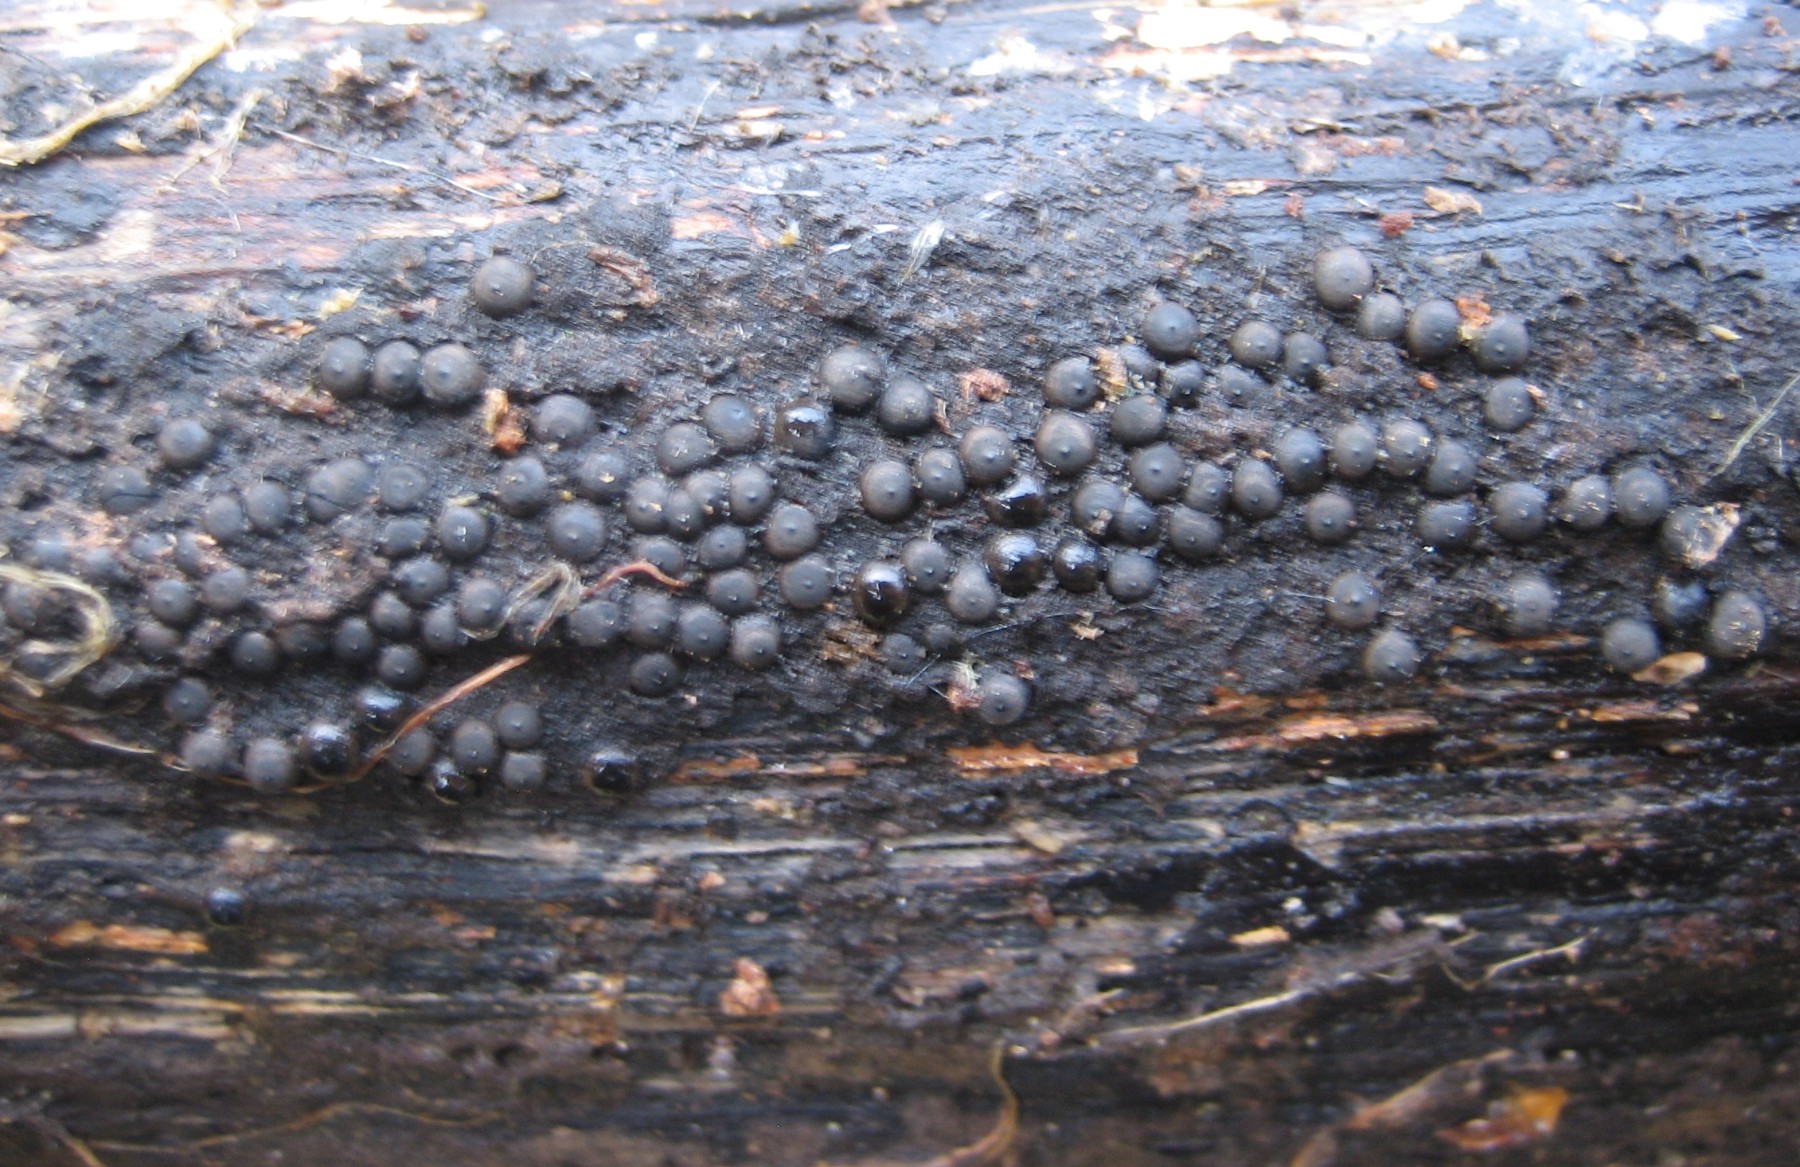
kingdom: Fungi
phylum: Ascomycota
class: Sordariomycetes
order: Xylariales
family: Xylariaceae
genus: Rosellinia
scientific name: Rosellinia
